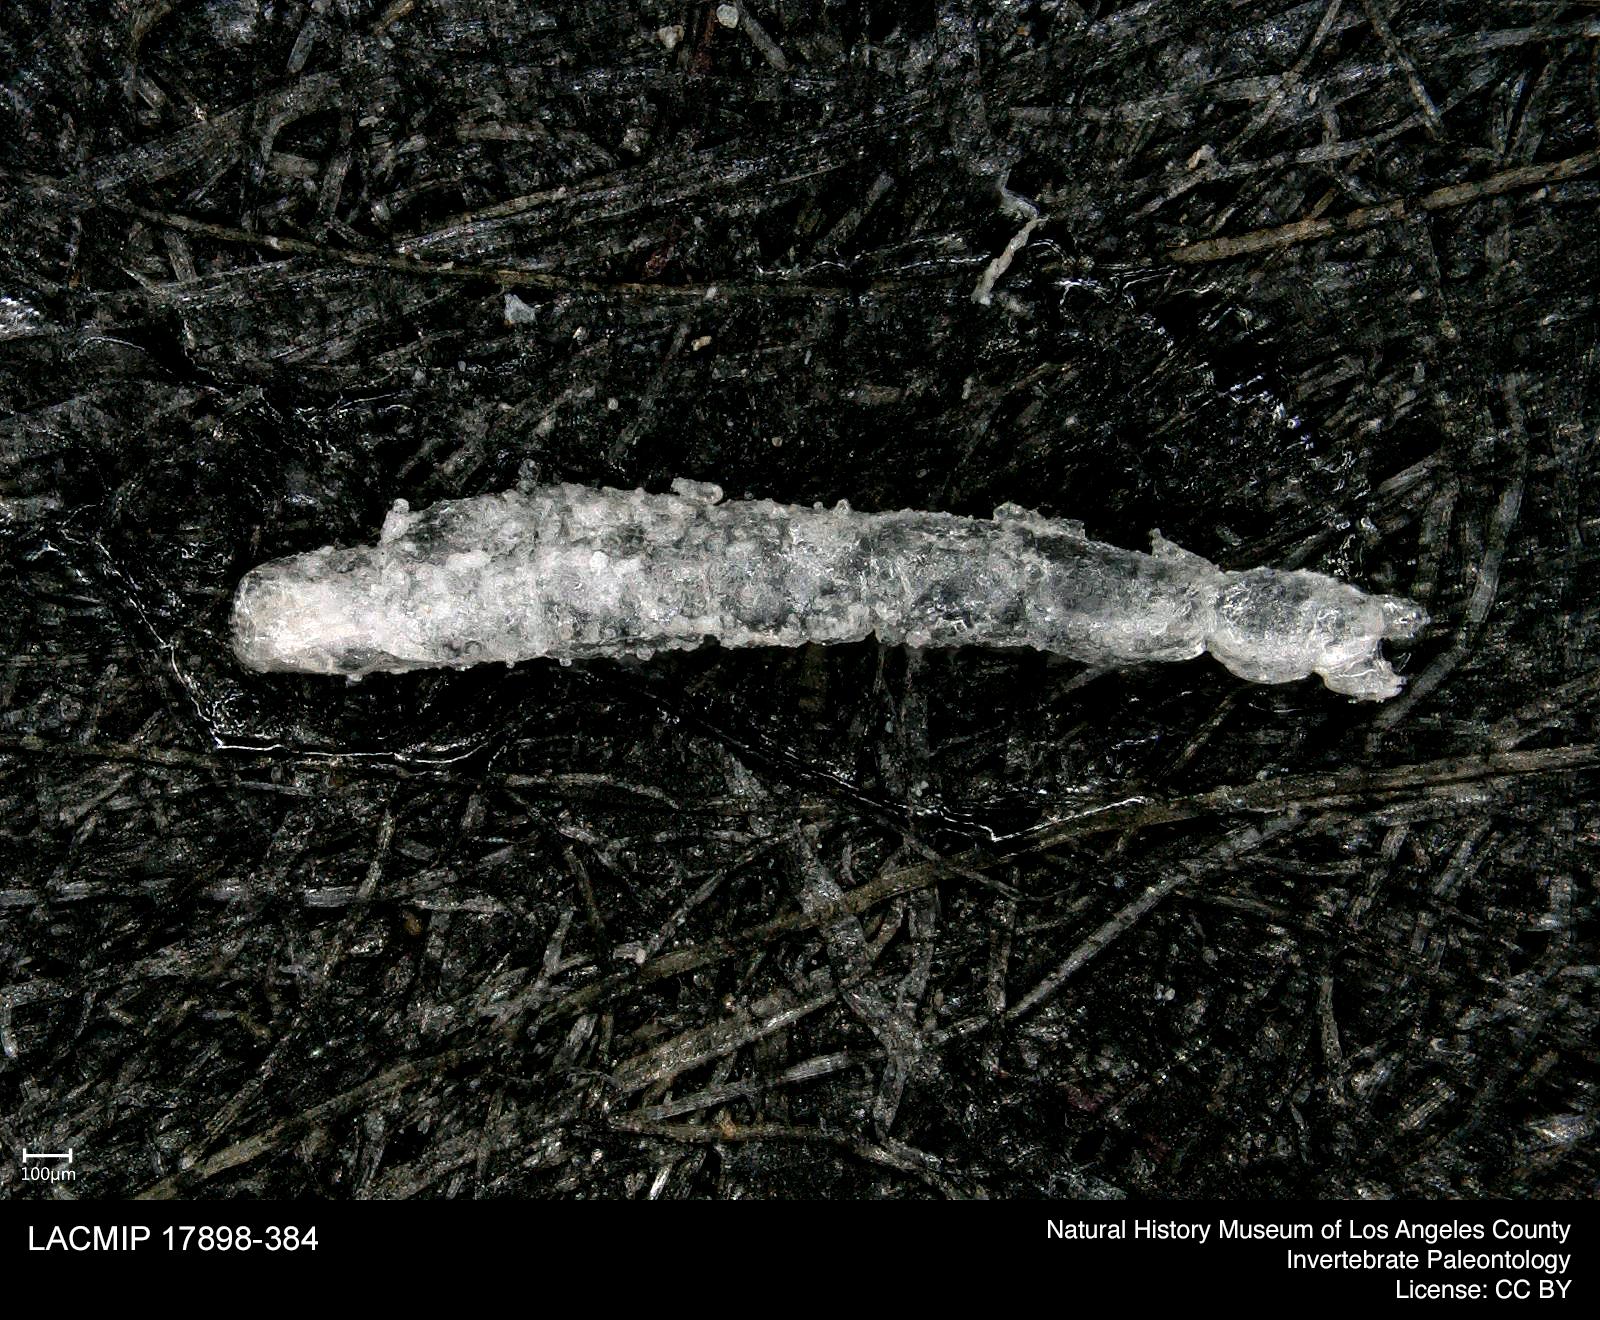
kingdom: Animalia
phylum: Arthropoda
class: Insecta
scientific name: Insecta
